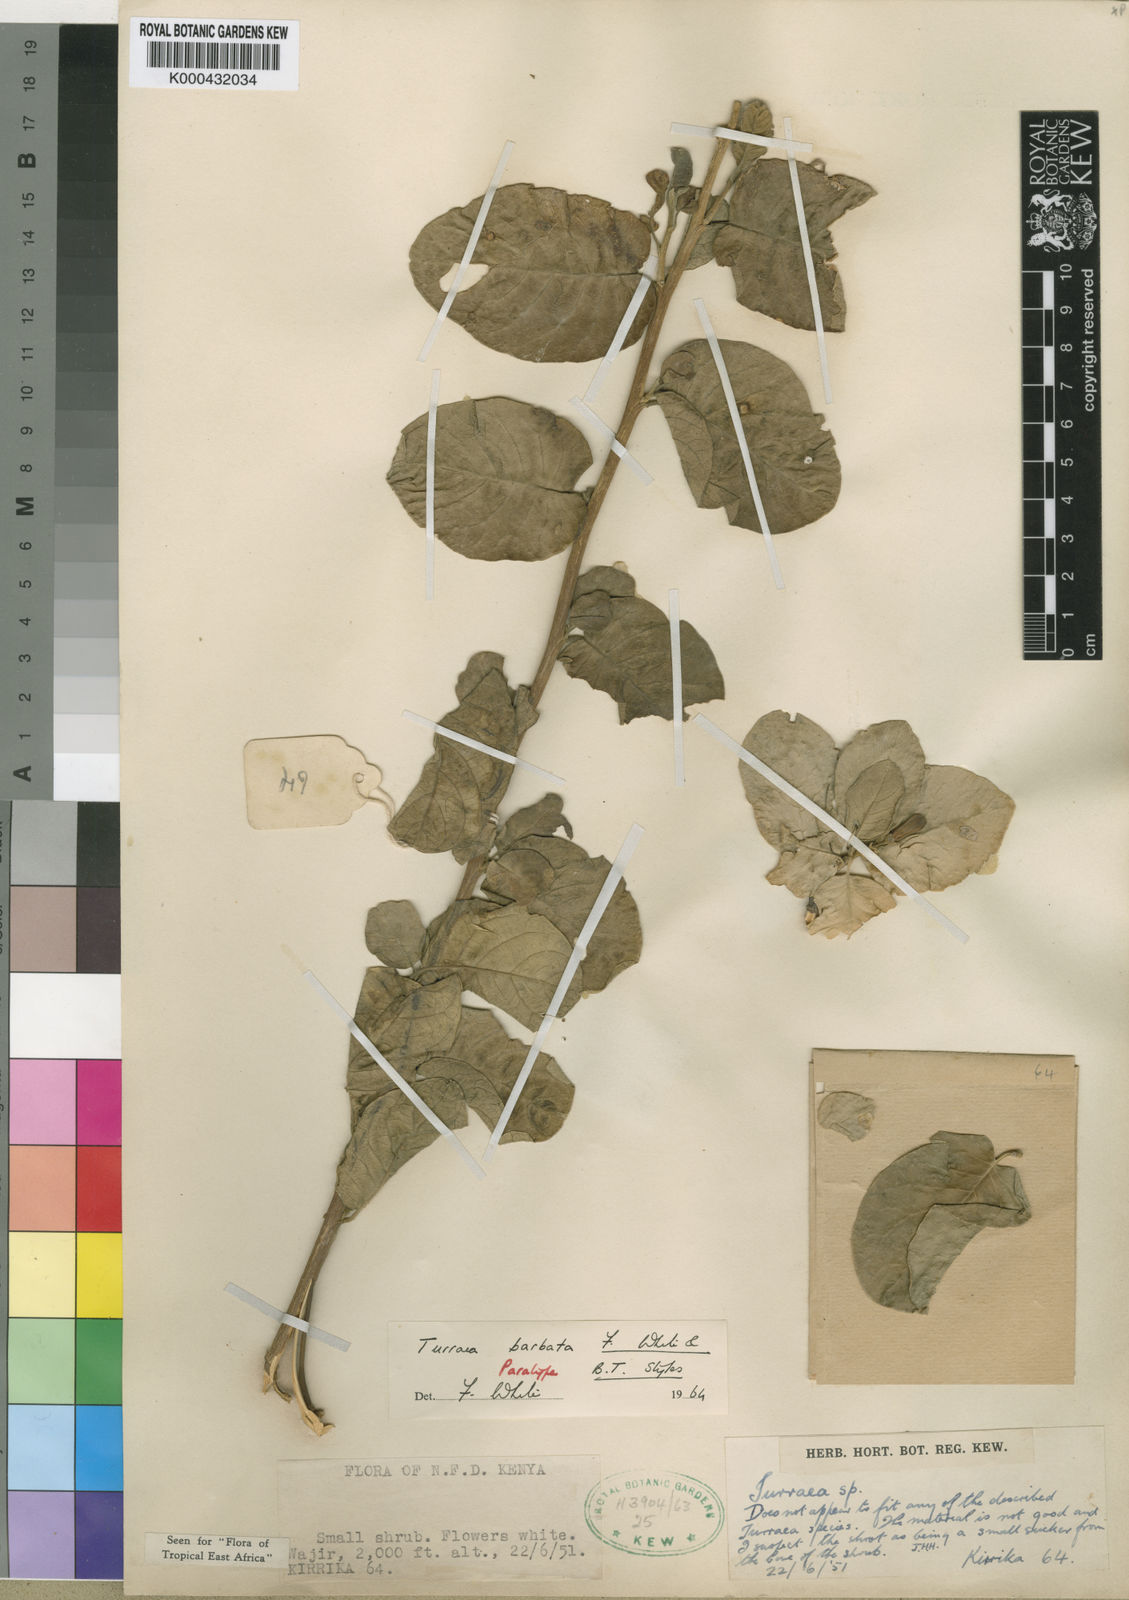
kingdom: Plantae
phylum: Tracheophyta
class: Magnoliopsida
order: Sapindales
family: Meliaceae
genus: Turraea
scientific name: Turraea barbata
